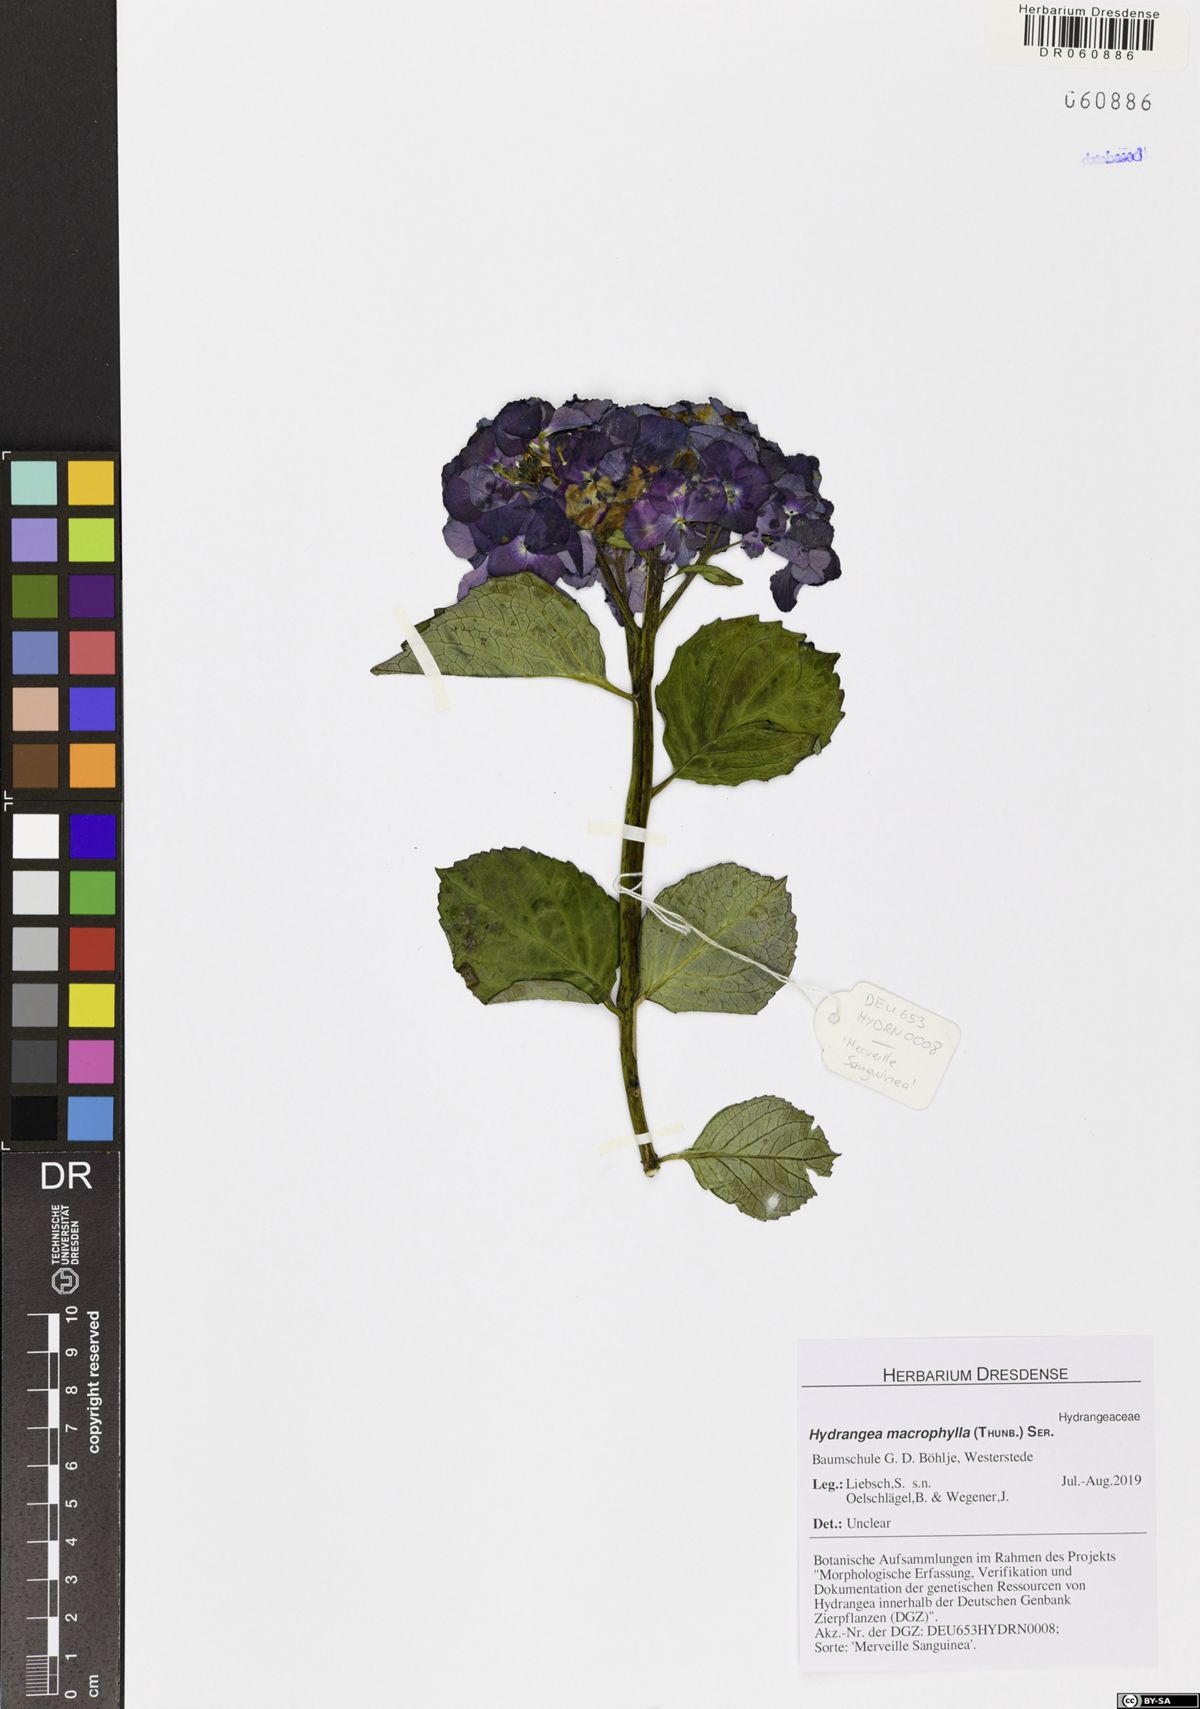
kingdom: Plantae
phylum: Tracheophyta
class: Magnoliopsida
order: Cornales
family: Hydrangeaceae
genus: Hydrangea
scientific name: Hydrangea macrophylla
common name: Hydrangea
